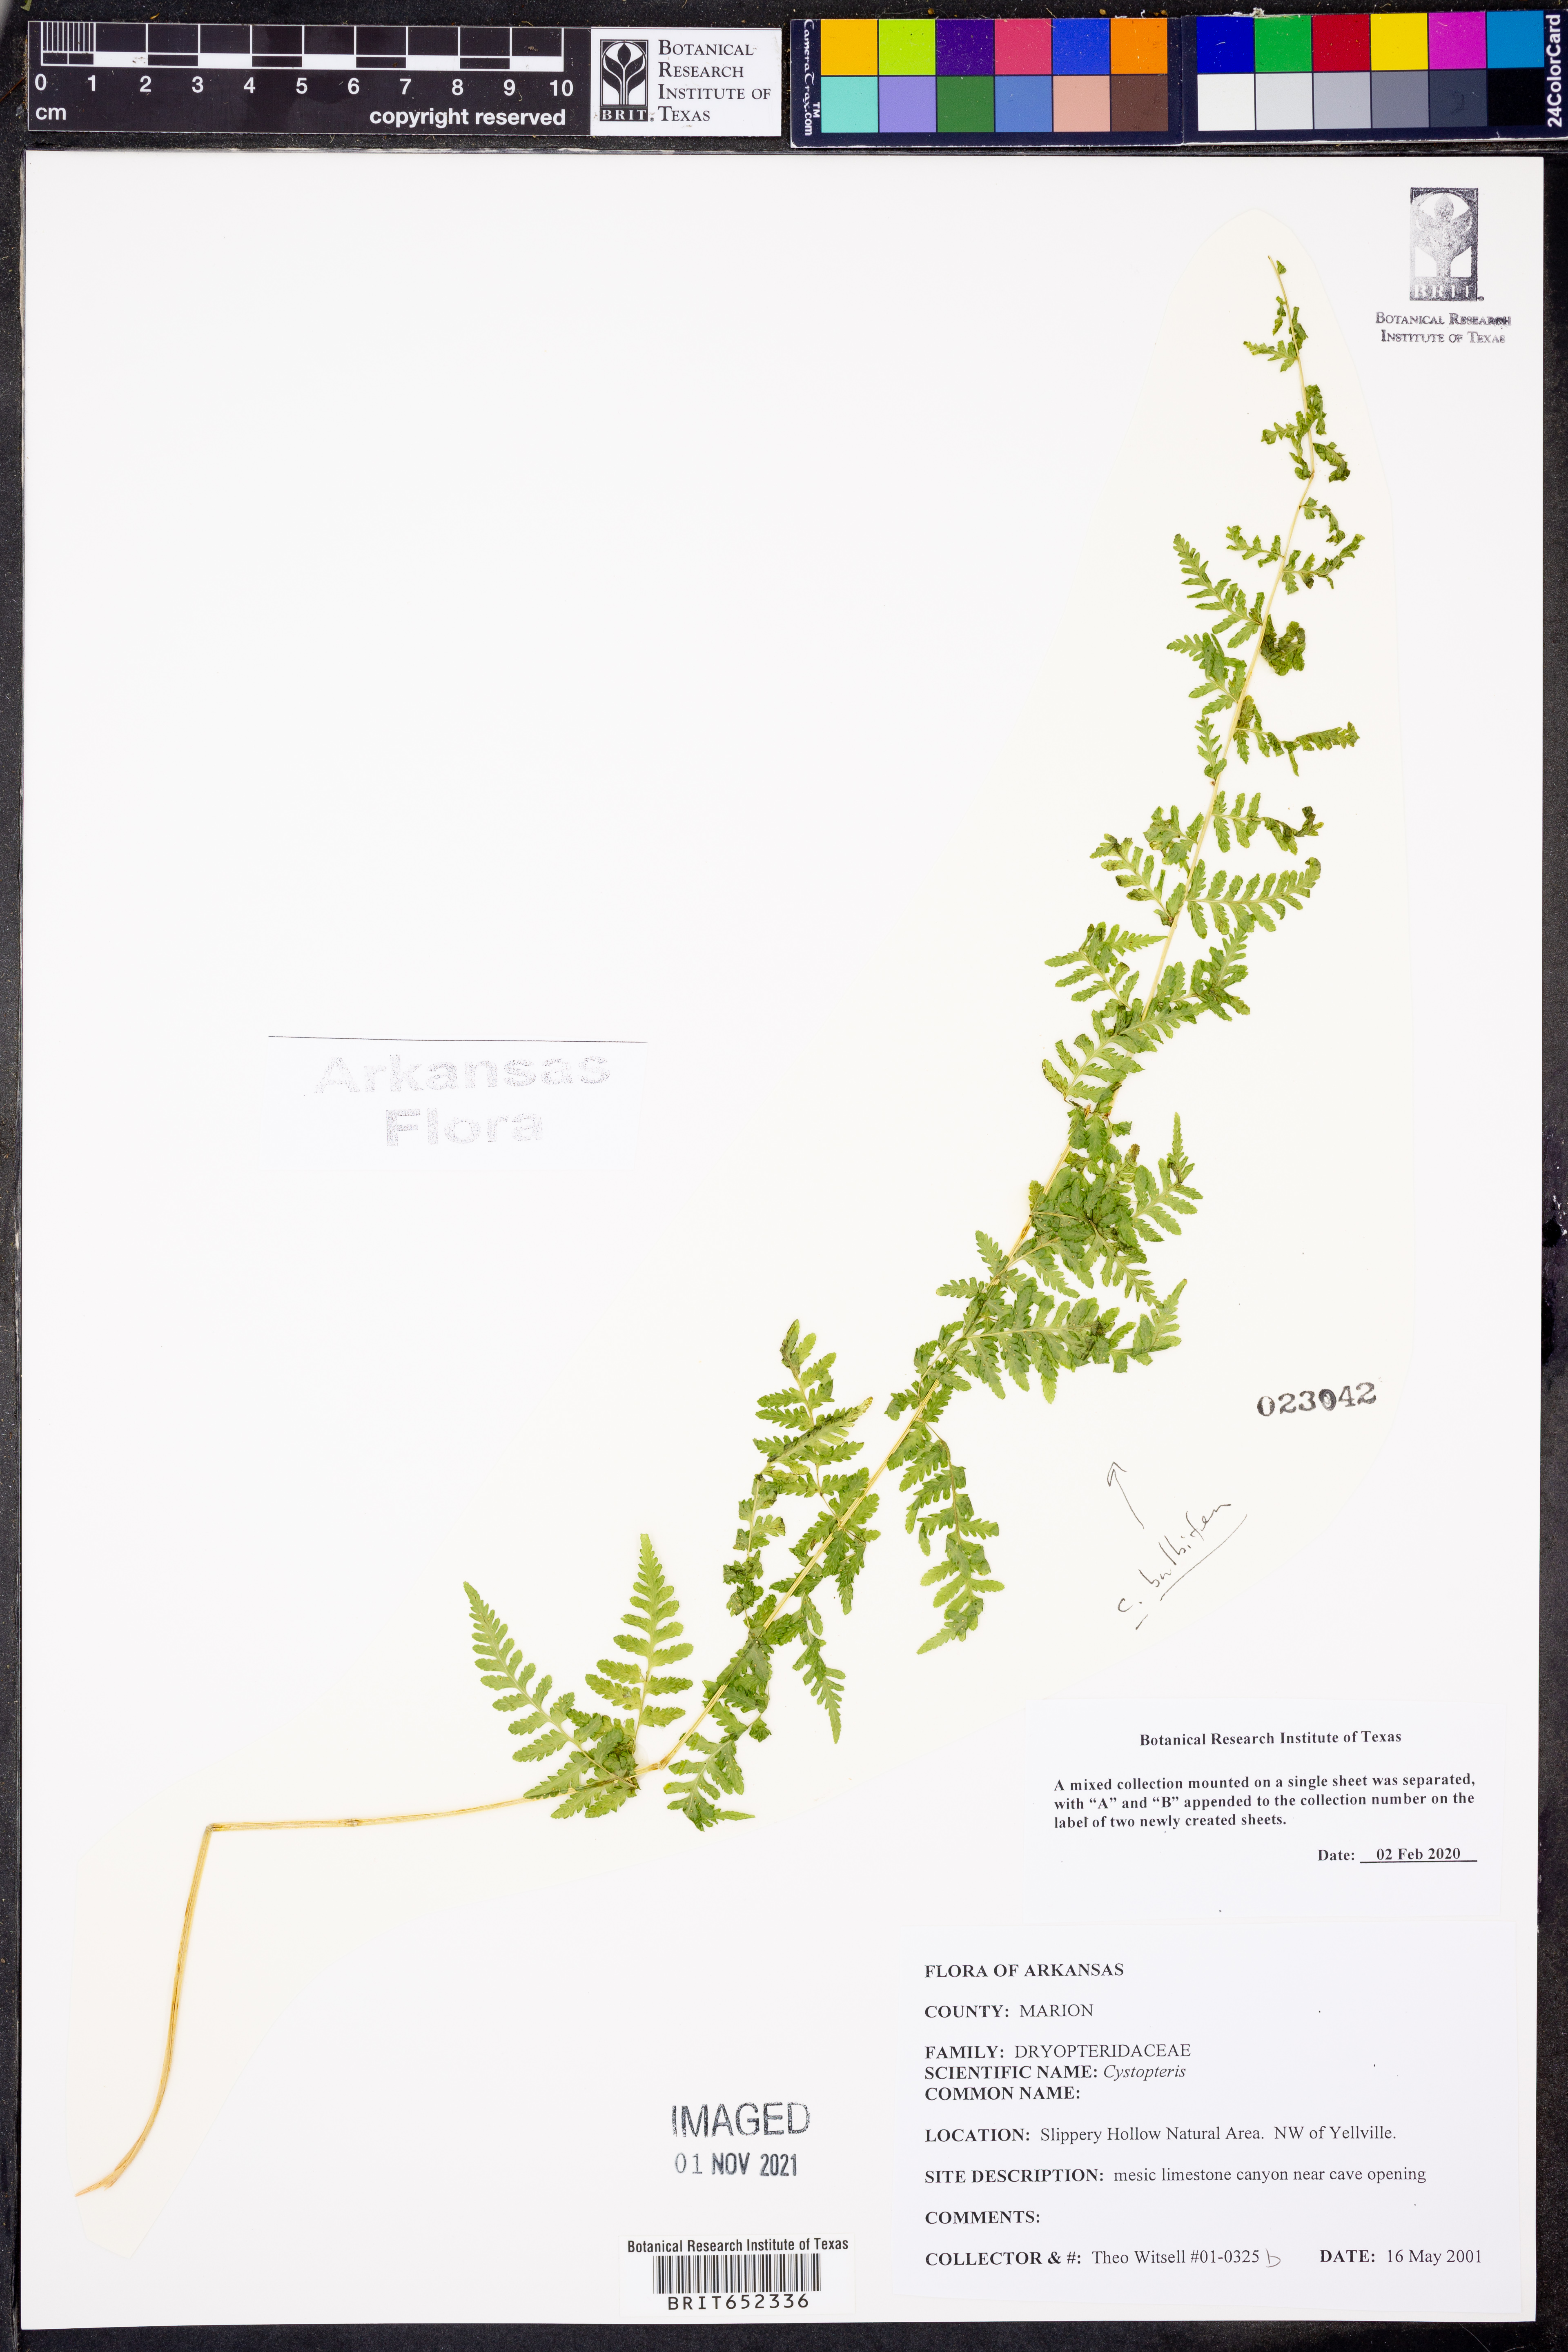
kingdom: Plantae
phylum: Tracheophyta
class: Polypodiopsida
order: Polypodiales
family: Cystopteridaceae
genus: Cystopteris
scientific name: Cystopteris bulbifera
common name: Bulblet bladder fern
